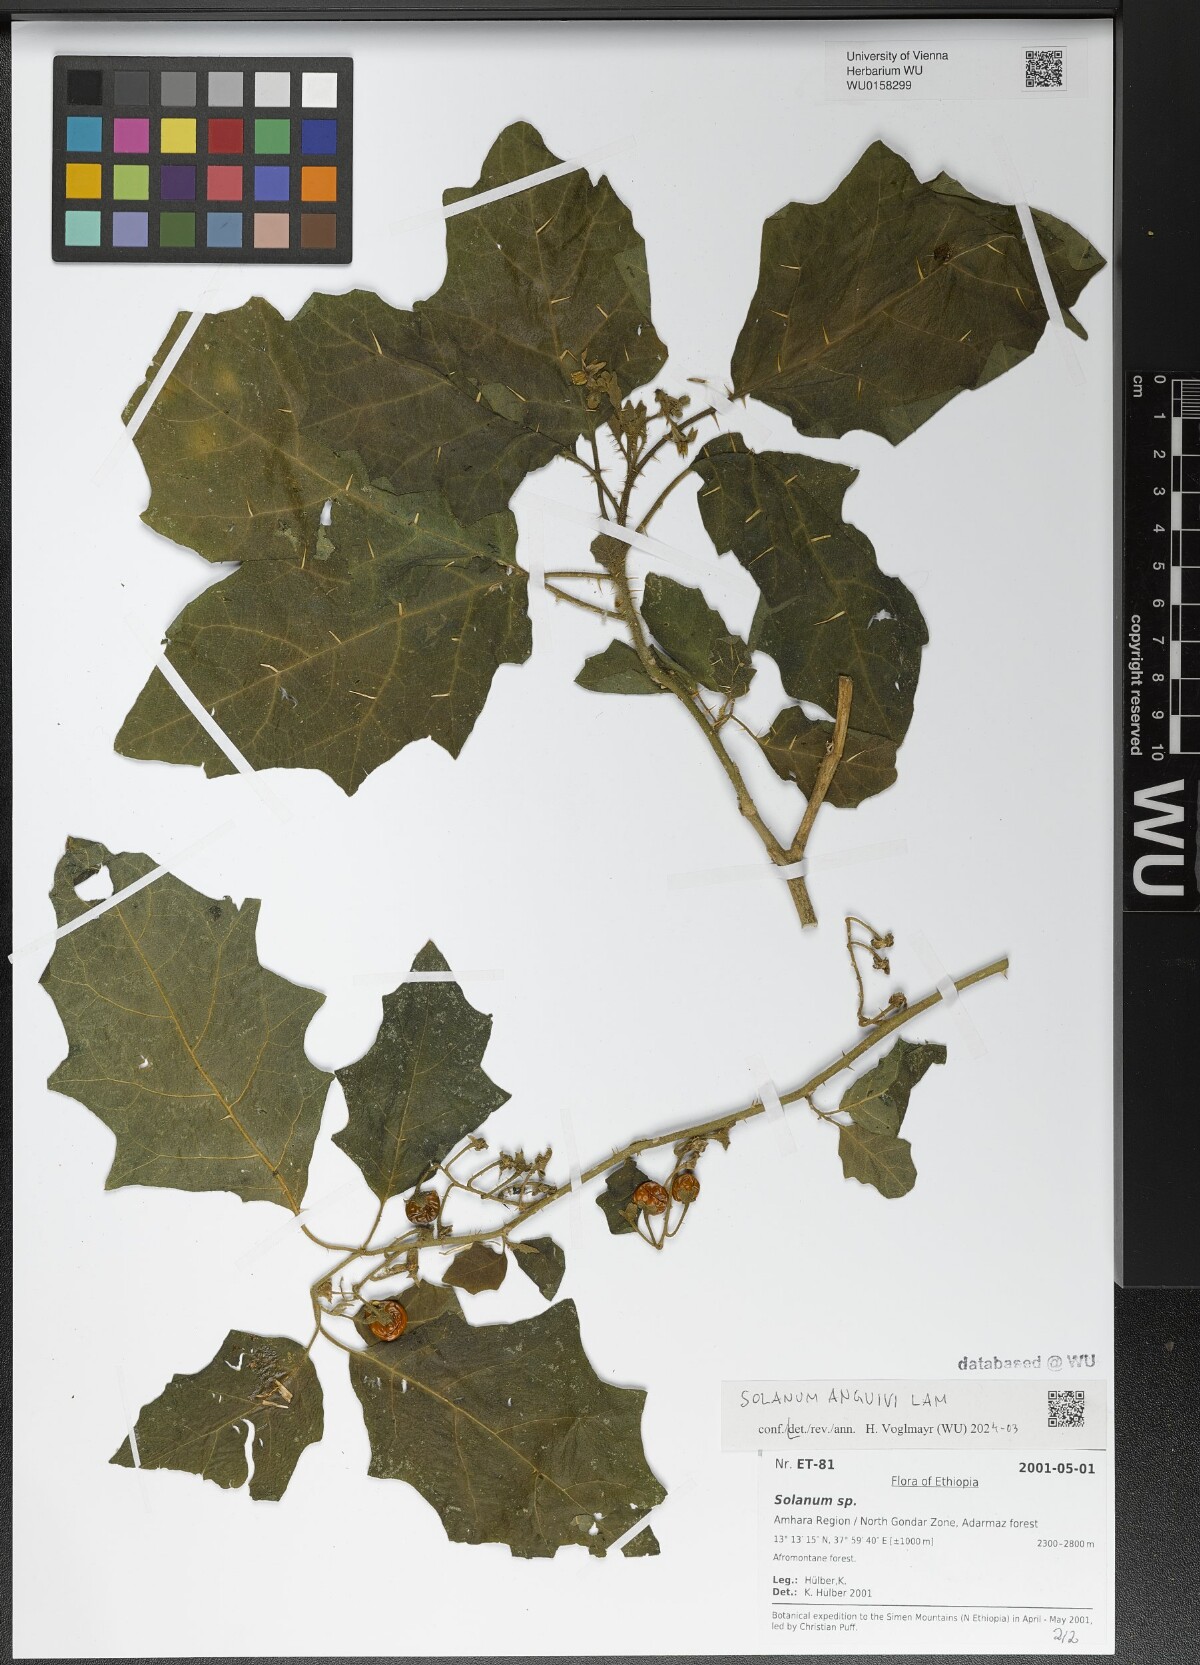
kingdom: Plantae
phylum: Tracheophyta
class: Magnoliopsida
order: Solanales
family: Solanaceae
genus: Solanum
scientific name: Solanum anguivi
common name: Forest bitterberry
